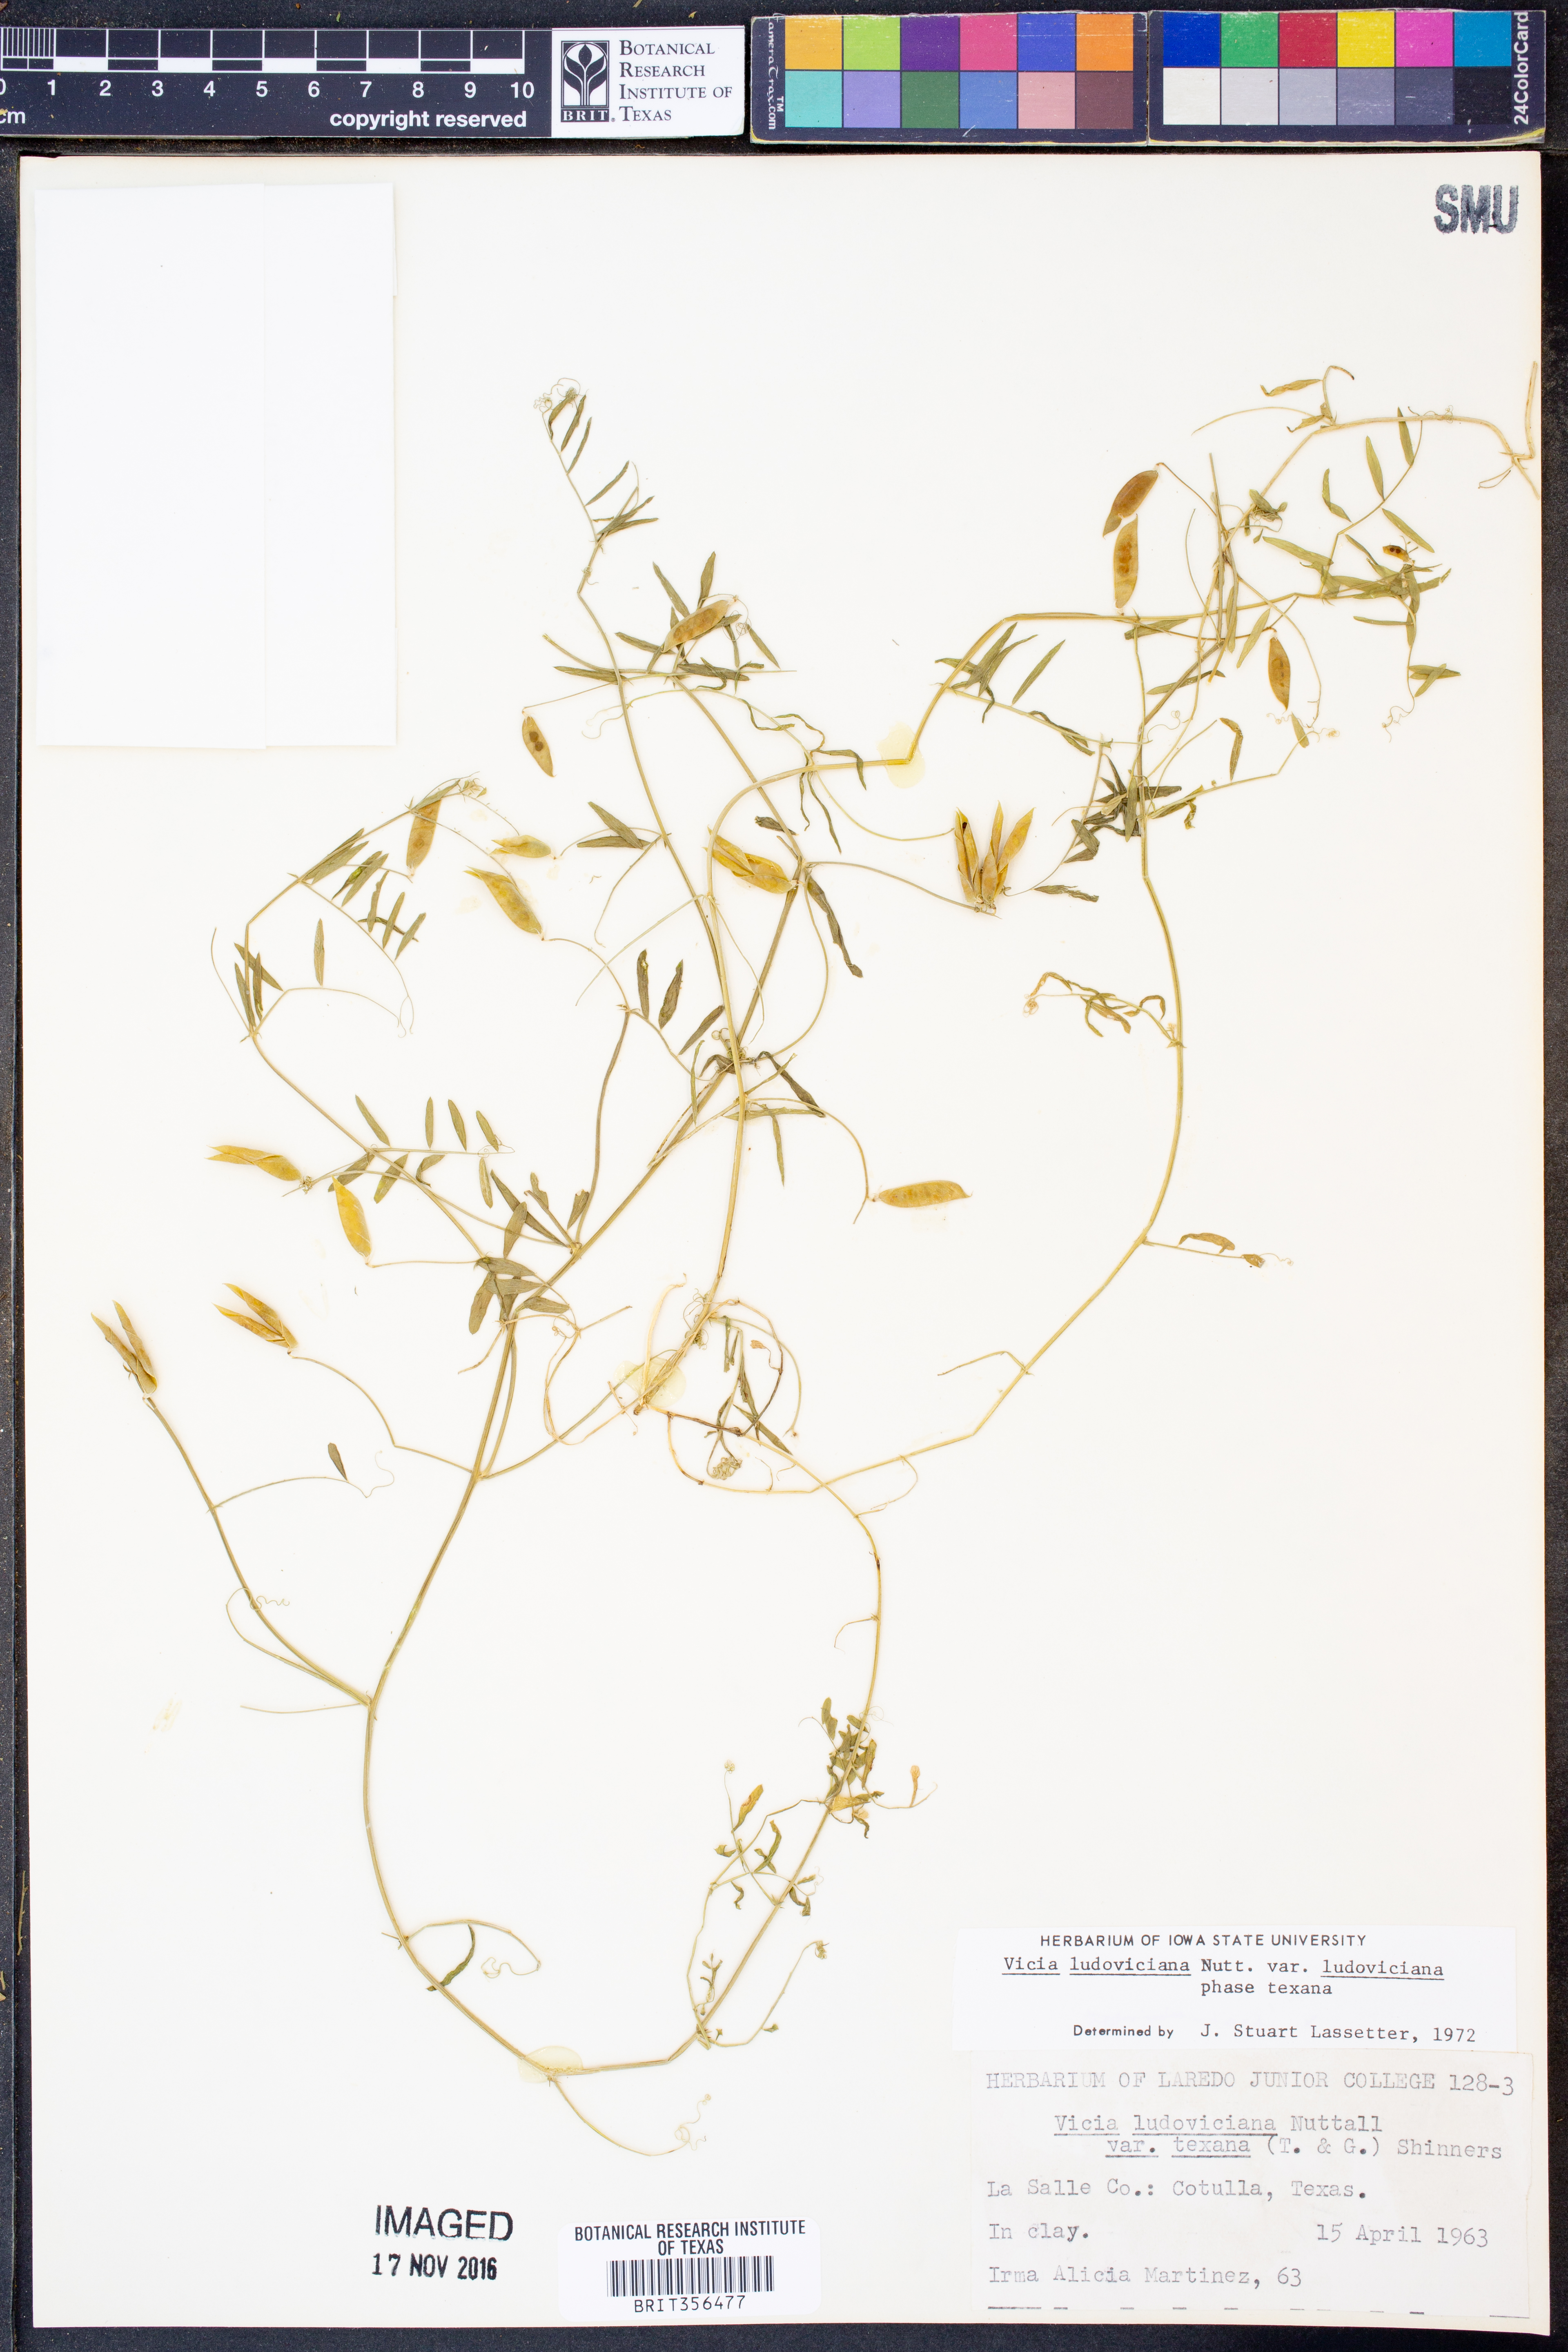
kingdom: Plantae
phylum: Tracheophyta
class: Magnoliopsida
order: Fabales
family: Fabaceae
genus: Vicia
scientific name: Vicia ludoviciana
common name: Louisiana vetch
